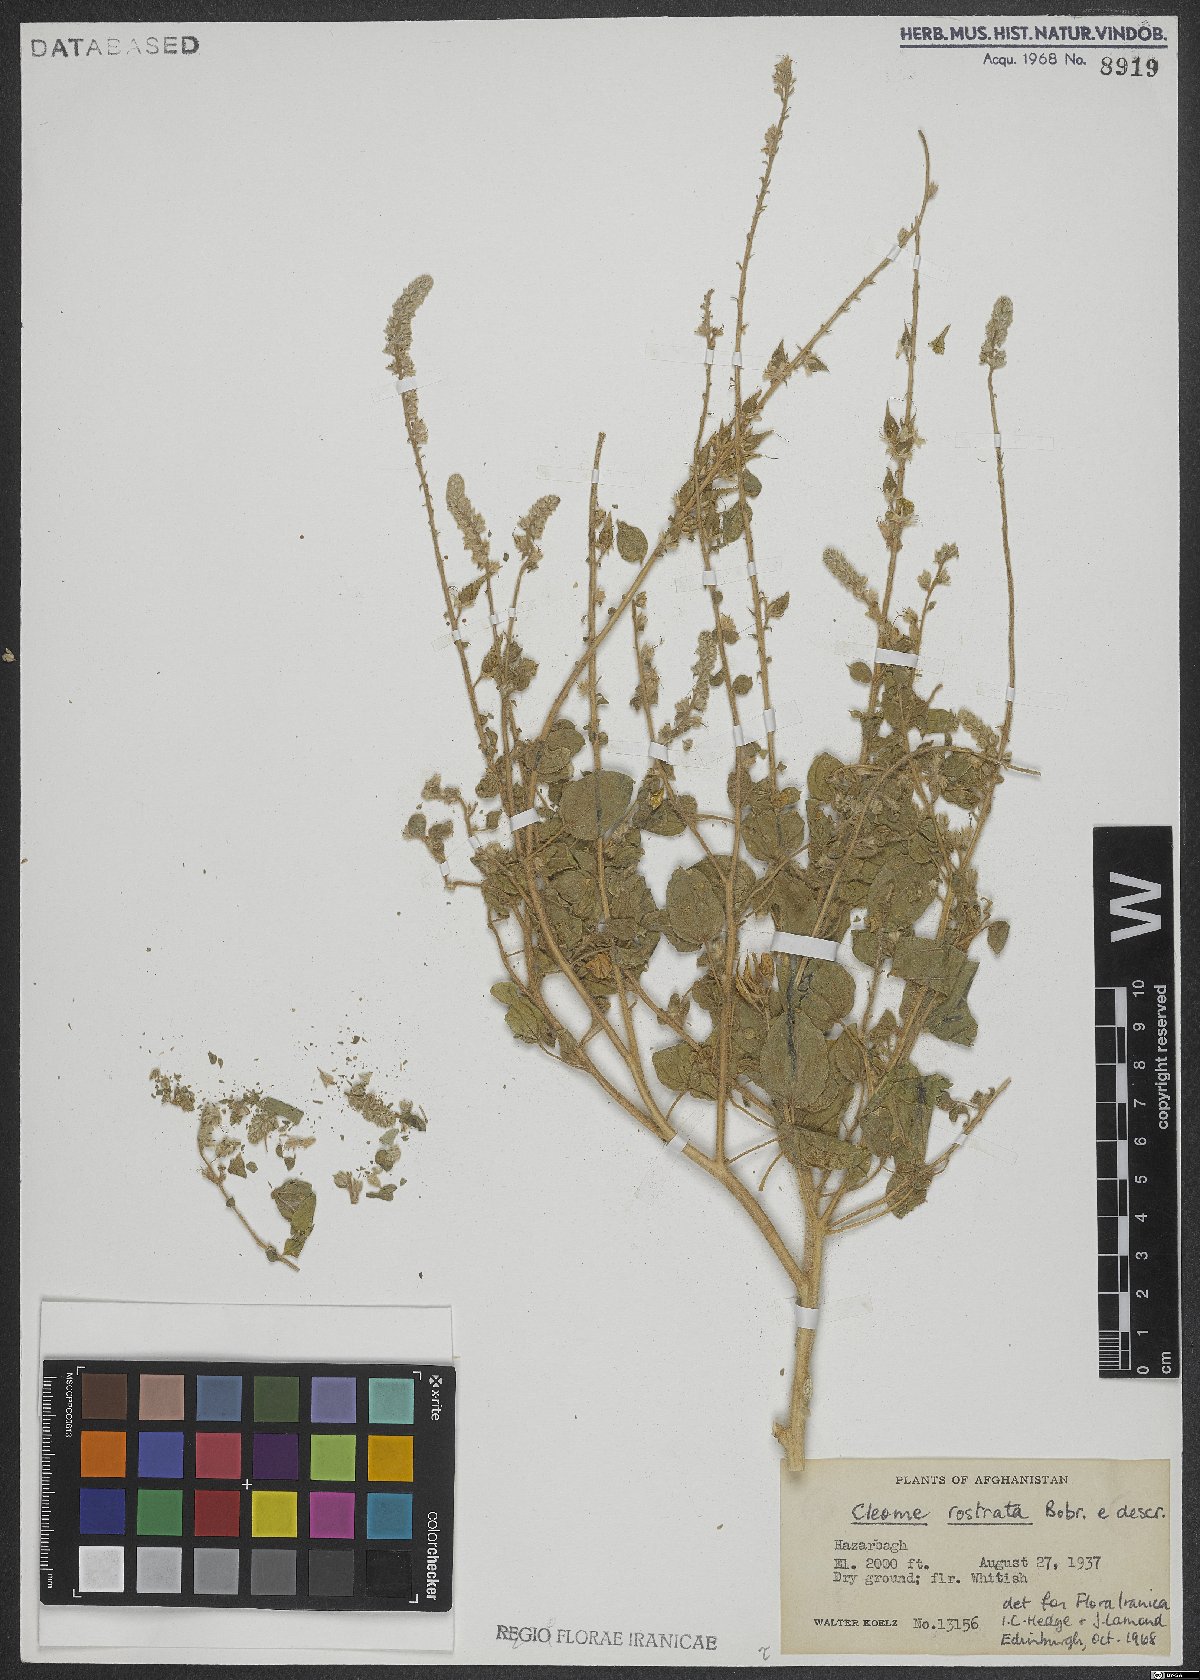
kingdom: Plantae
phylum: Tracheophyta
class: Magnoliopsida
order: Brassicales
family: Cleomaceae
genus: Rorida
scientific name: Rorida rostrata
